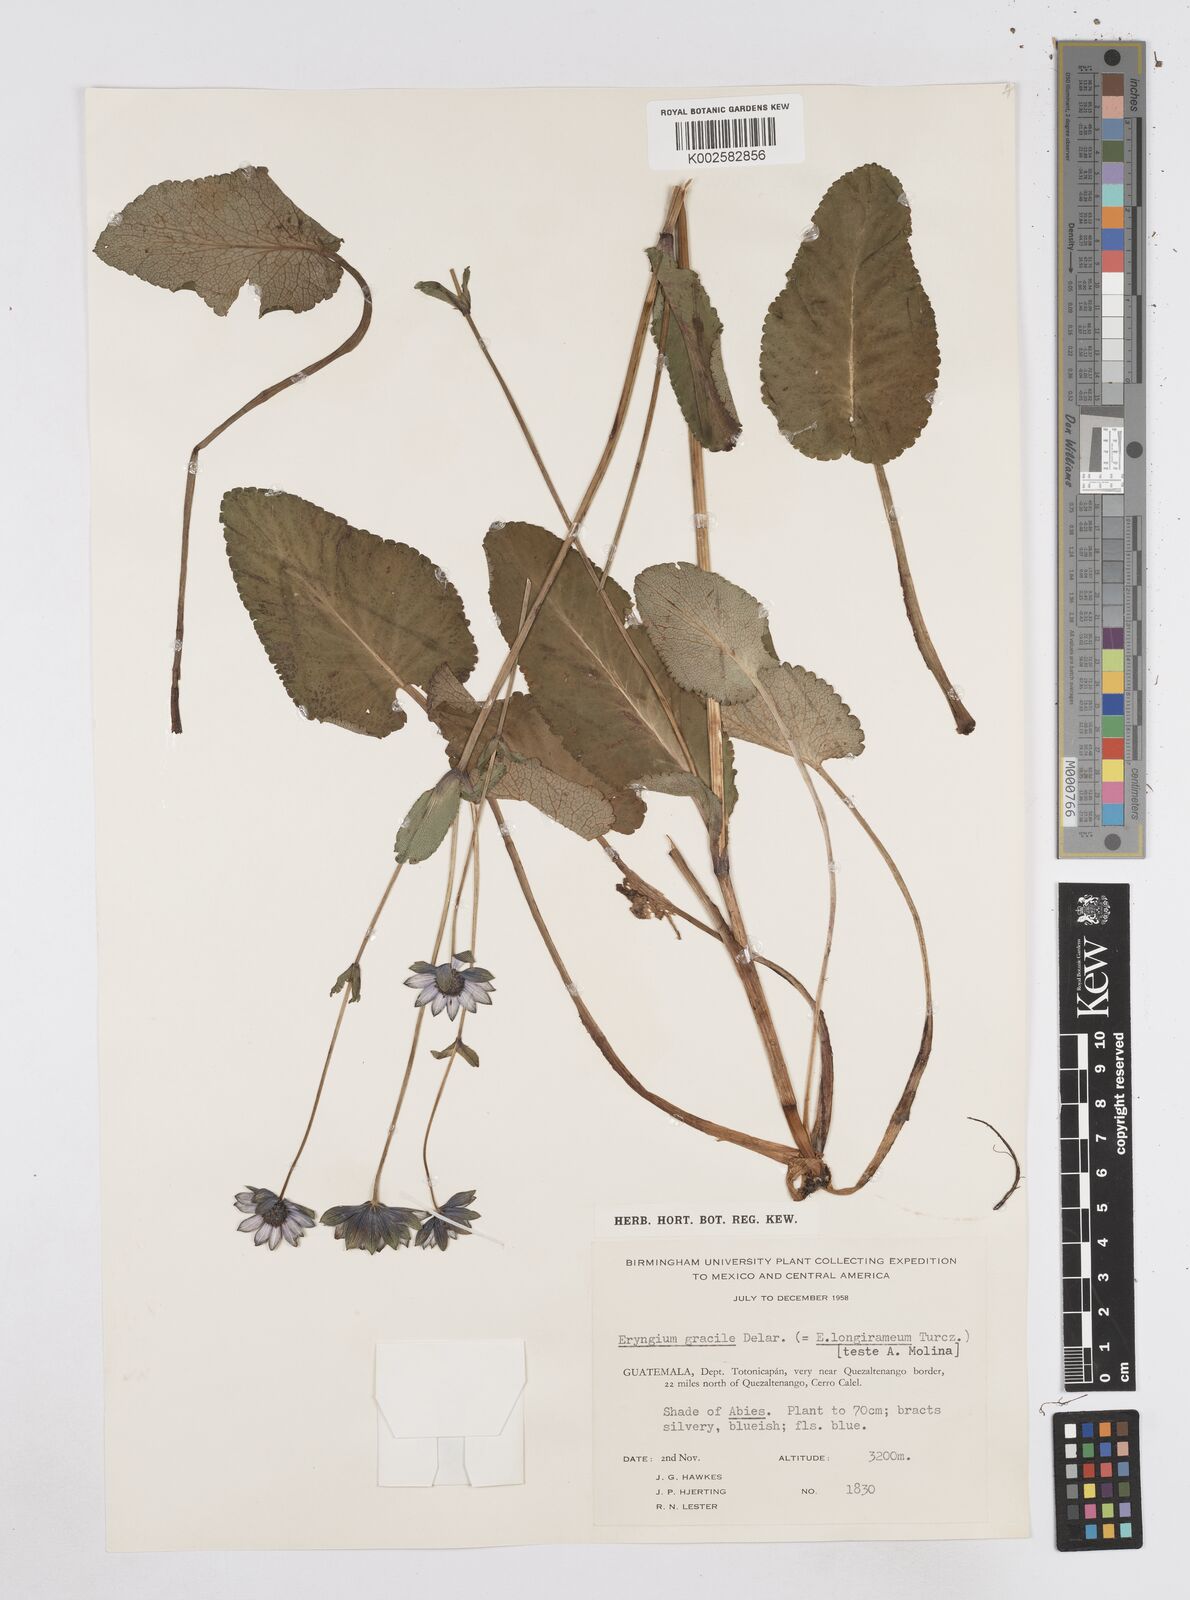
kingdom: Plantae
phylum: Tracheophyta
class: Magnoliopsida
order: Apiales
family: Apiaceae
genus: Eryngium
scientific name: Eryngium gracile
